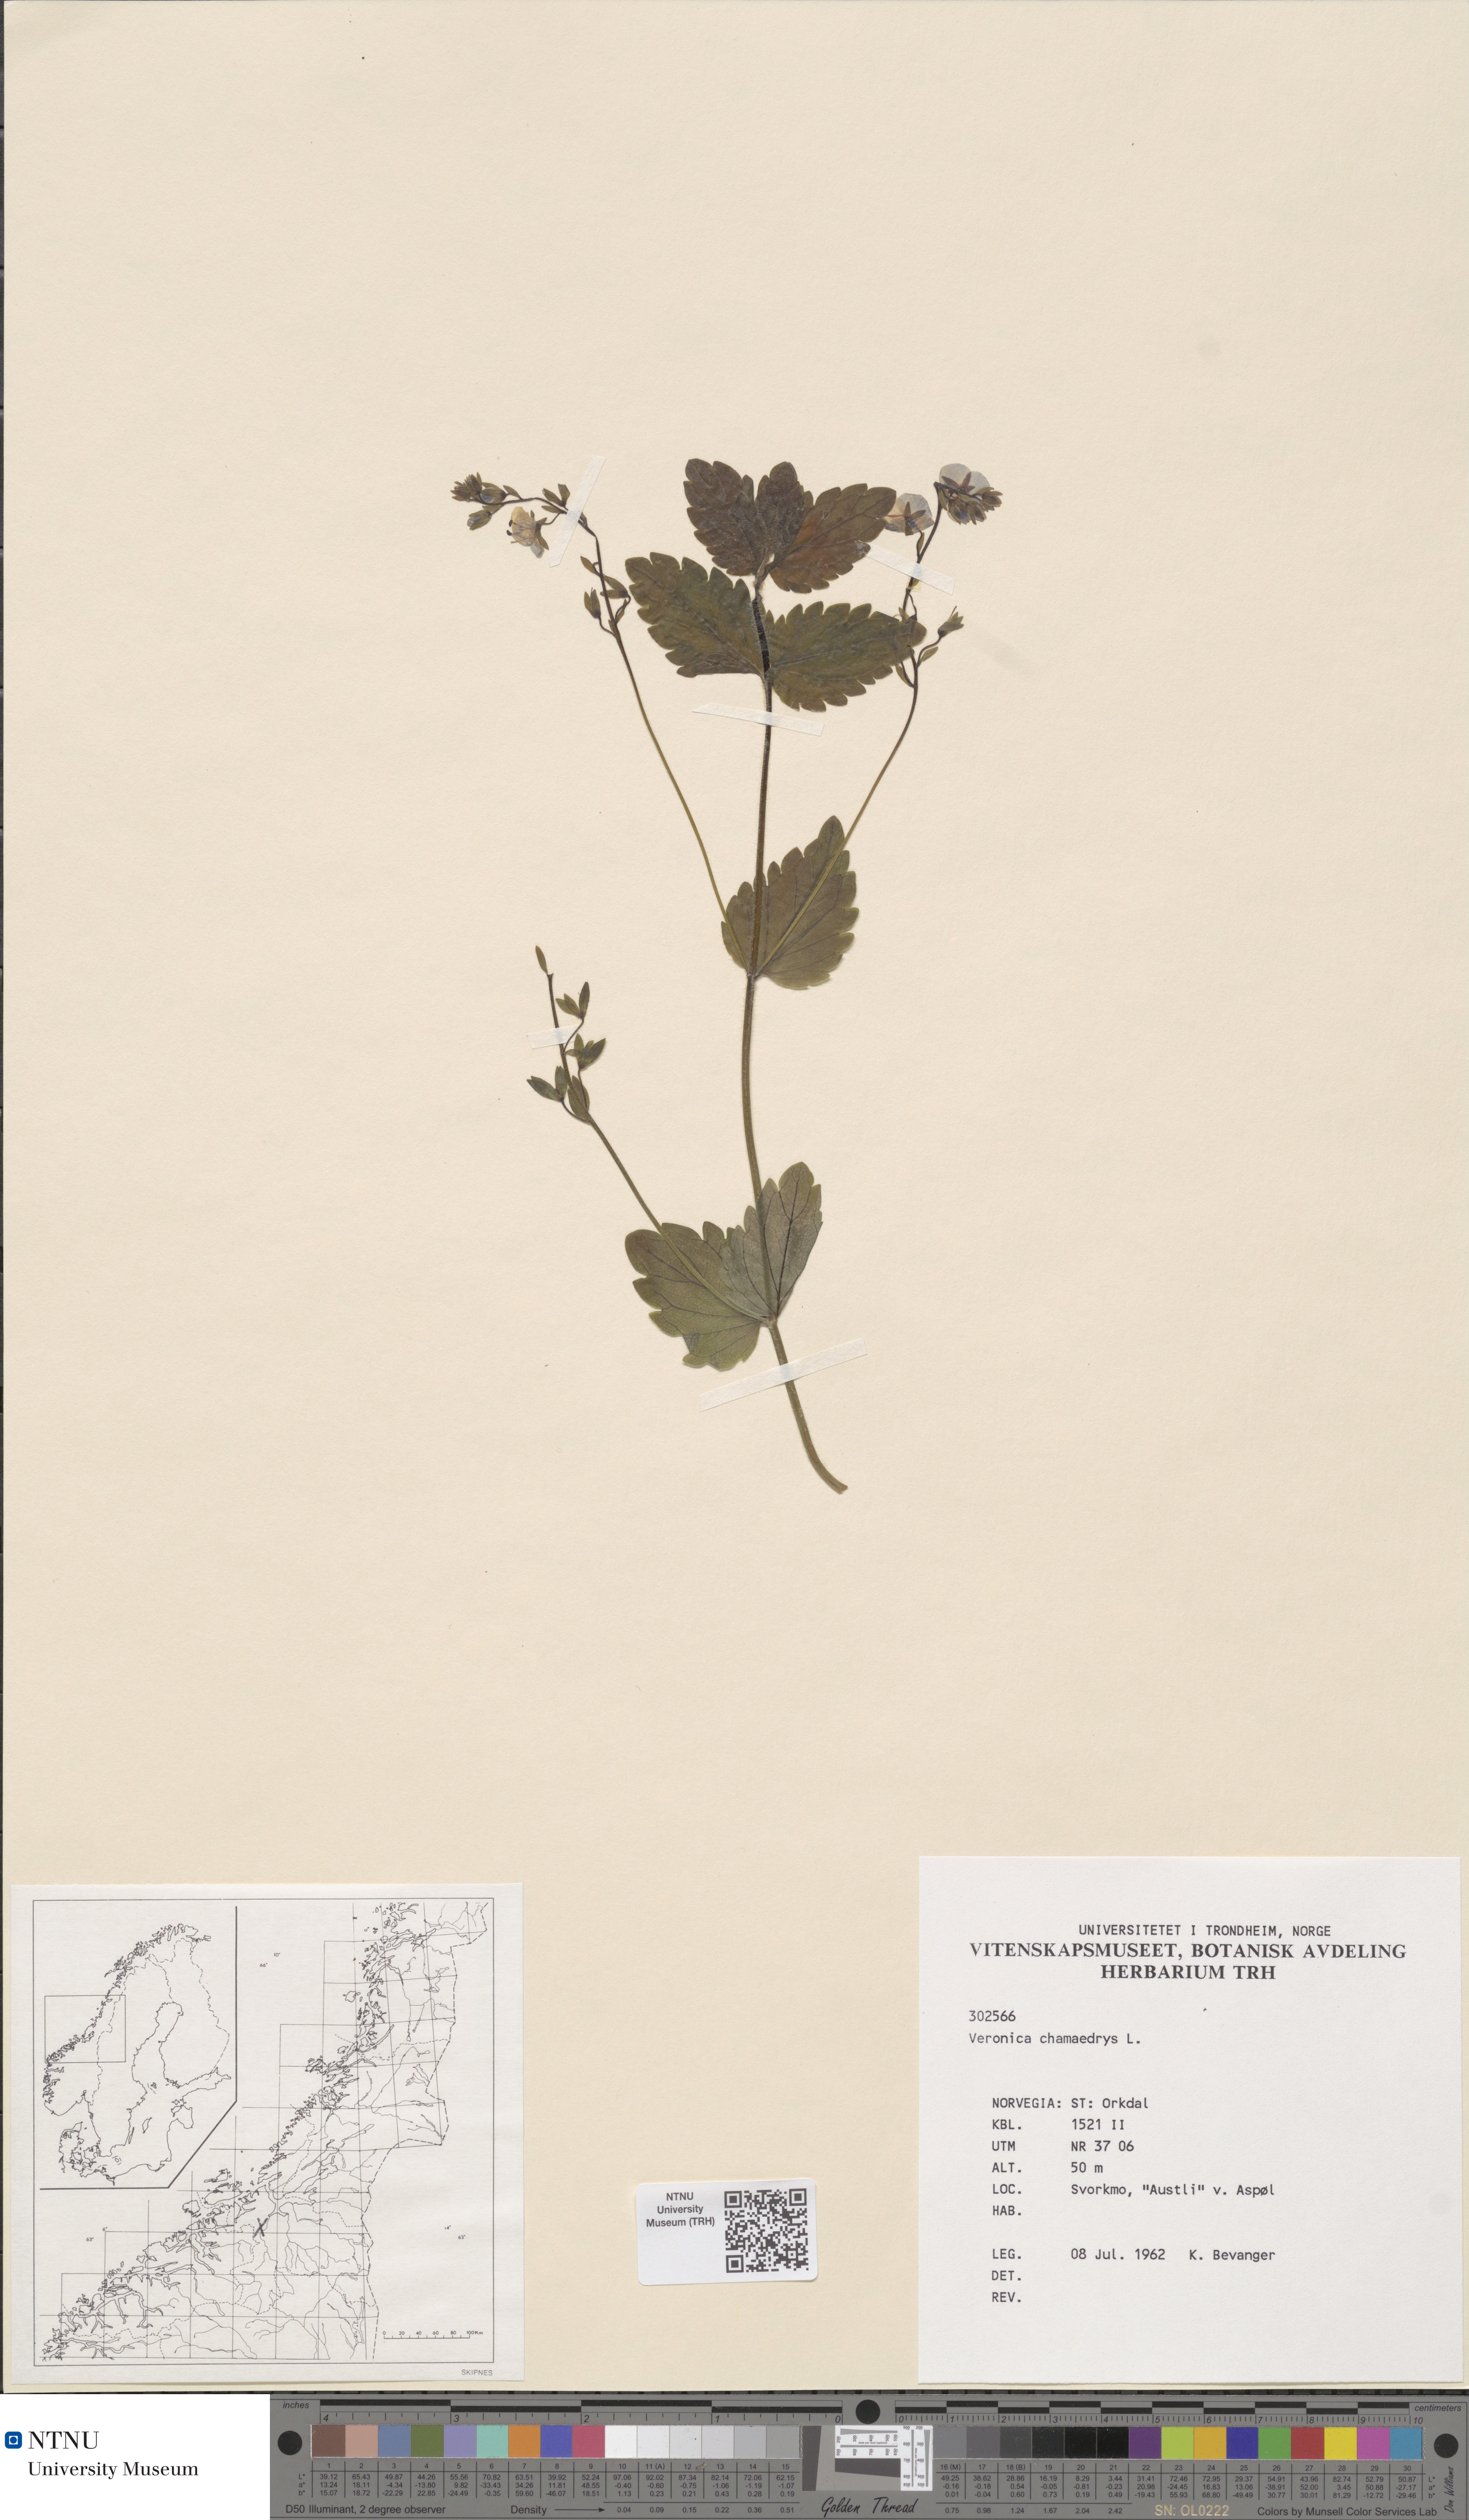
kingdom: Plantae
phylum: Tracheophyta
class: Magnoliopsida
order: Lamiales
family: Plantaginaceae
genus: Veronica
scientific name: Veronica chamaedrys
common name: Germander speedwell
